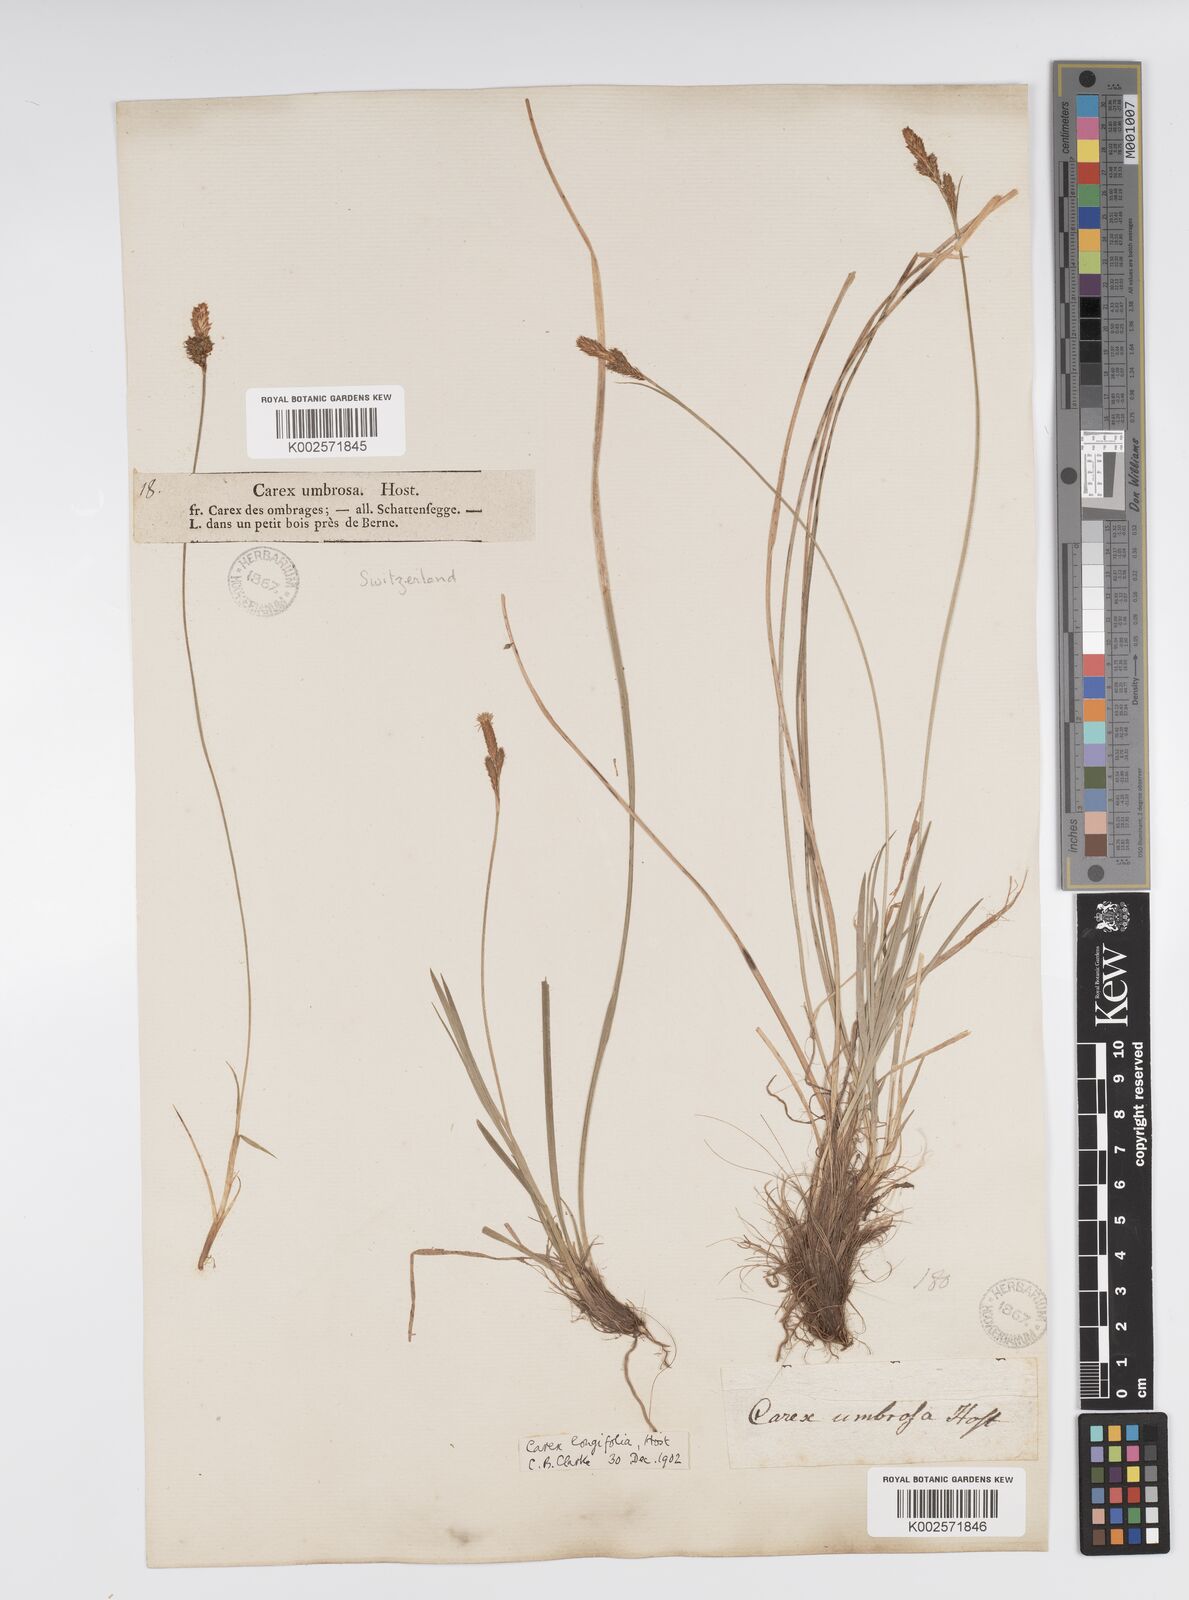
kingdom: Plantae
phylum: Tracheophyta
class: Liliopsida
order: Poales
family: Cyperaceae
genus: Carex
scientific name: Carex umbrosa
